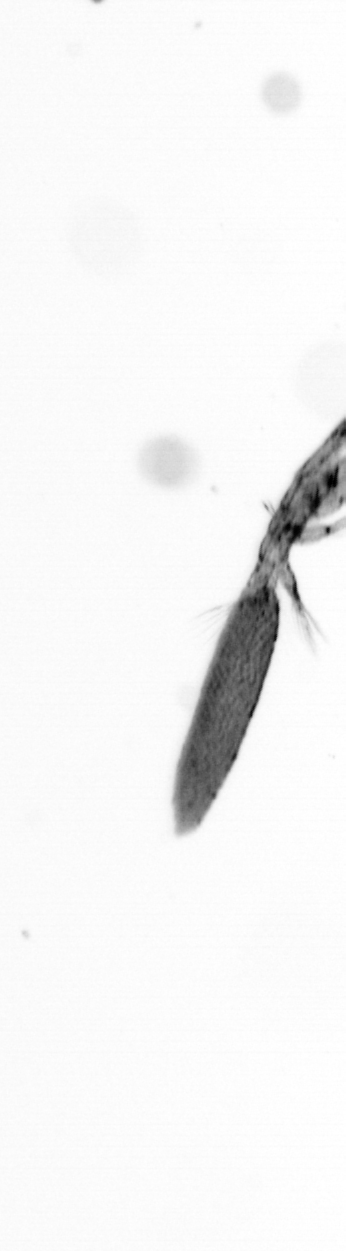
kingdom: Animalia
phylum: Arthropoda
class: Copepoda
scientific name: Copepoda
